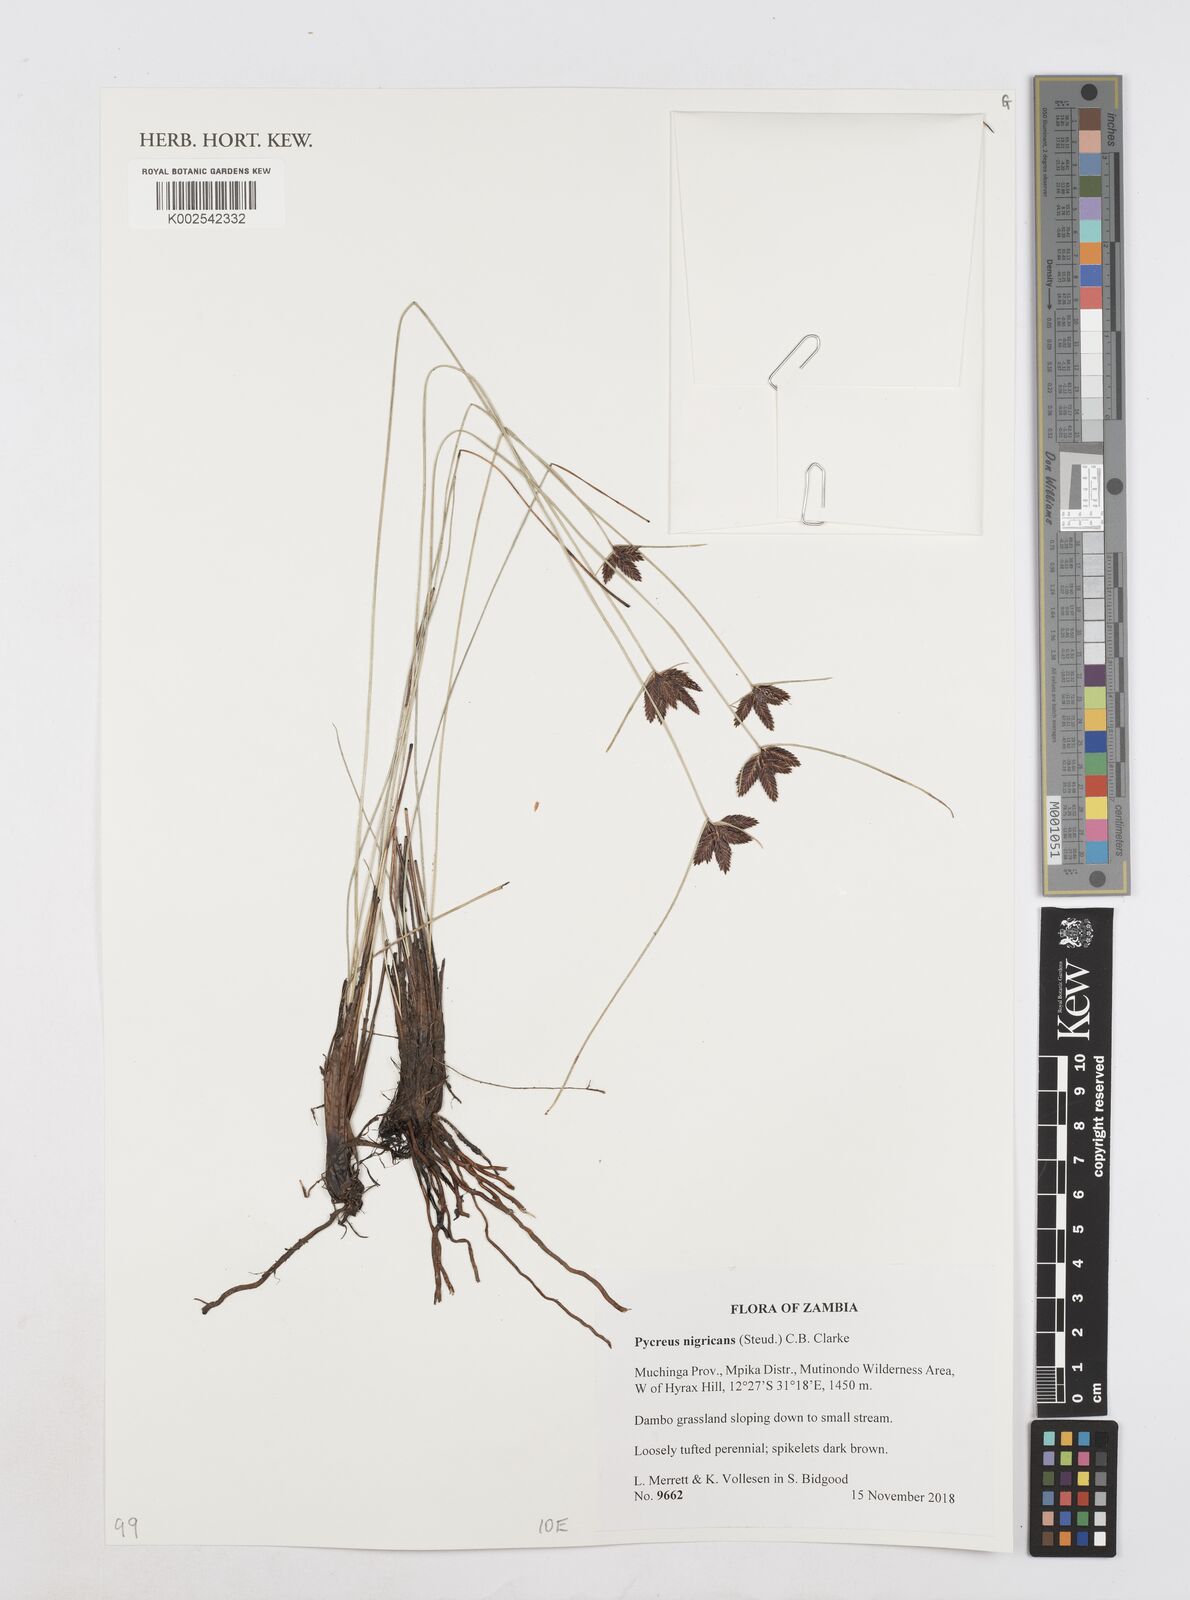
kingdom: Plantae
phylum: Tracheophyta
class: Liliopsida
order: Poales
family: Cyperaceae
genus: Cyperus
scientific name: Cyperus nigricans
